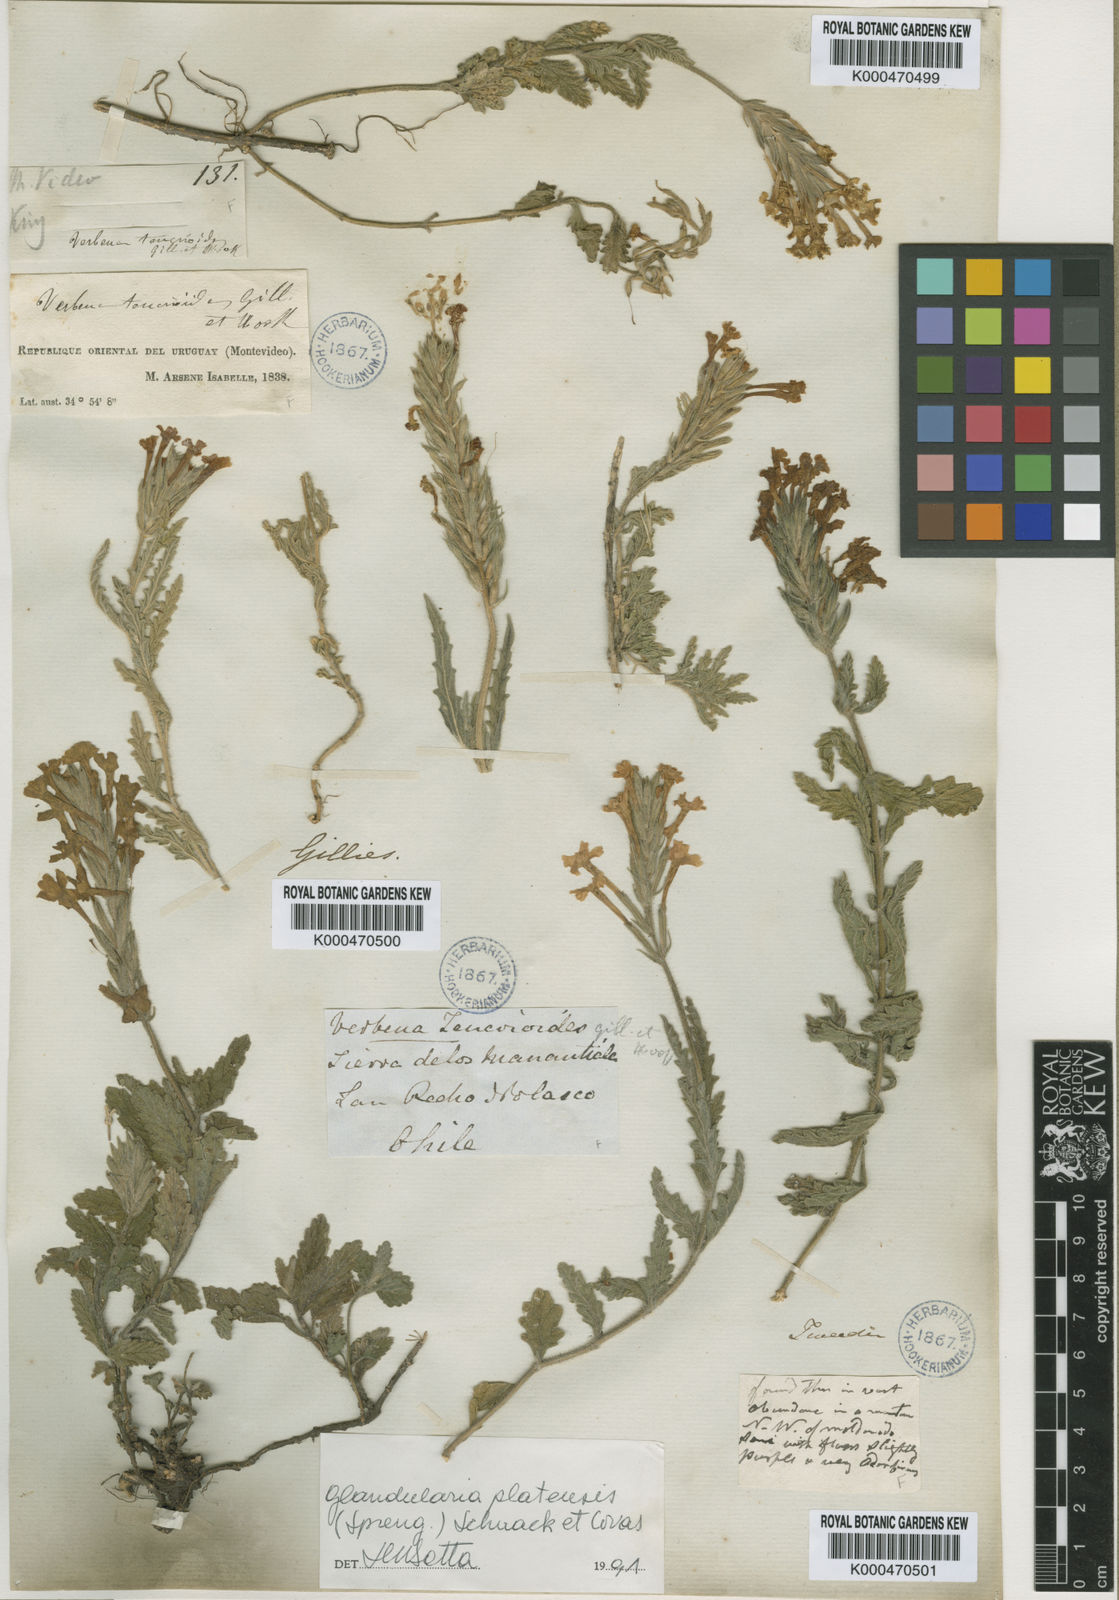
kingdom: Plantae
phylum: Tracheophyta
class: Magnoliopsida
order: Lamiales
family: Verbenaceae
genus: Verbena
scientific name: Verbena platensis
